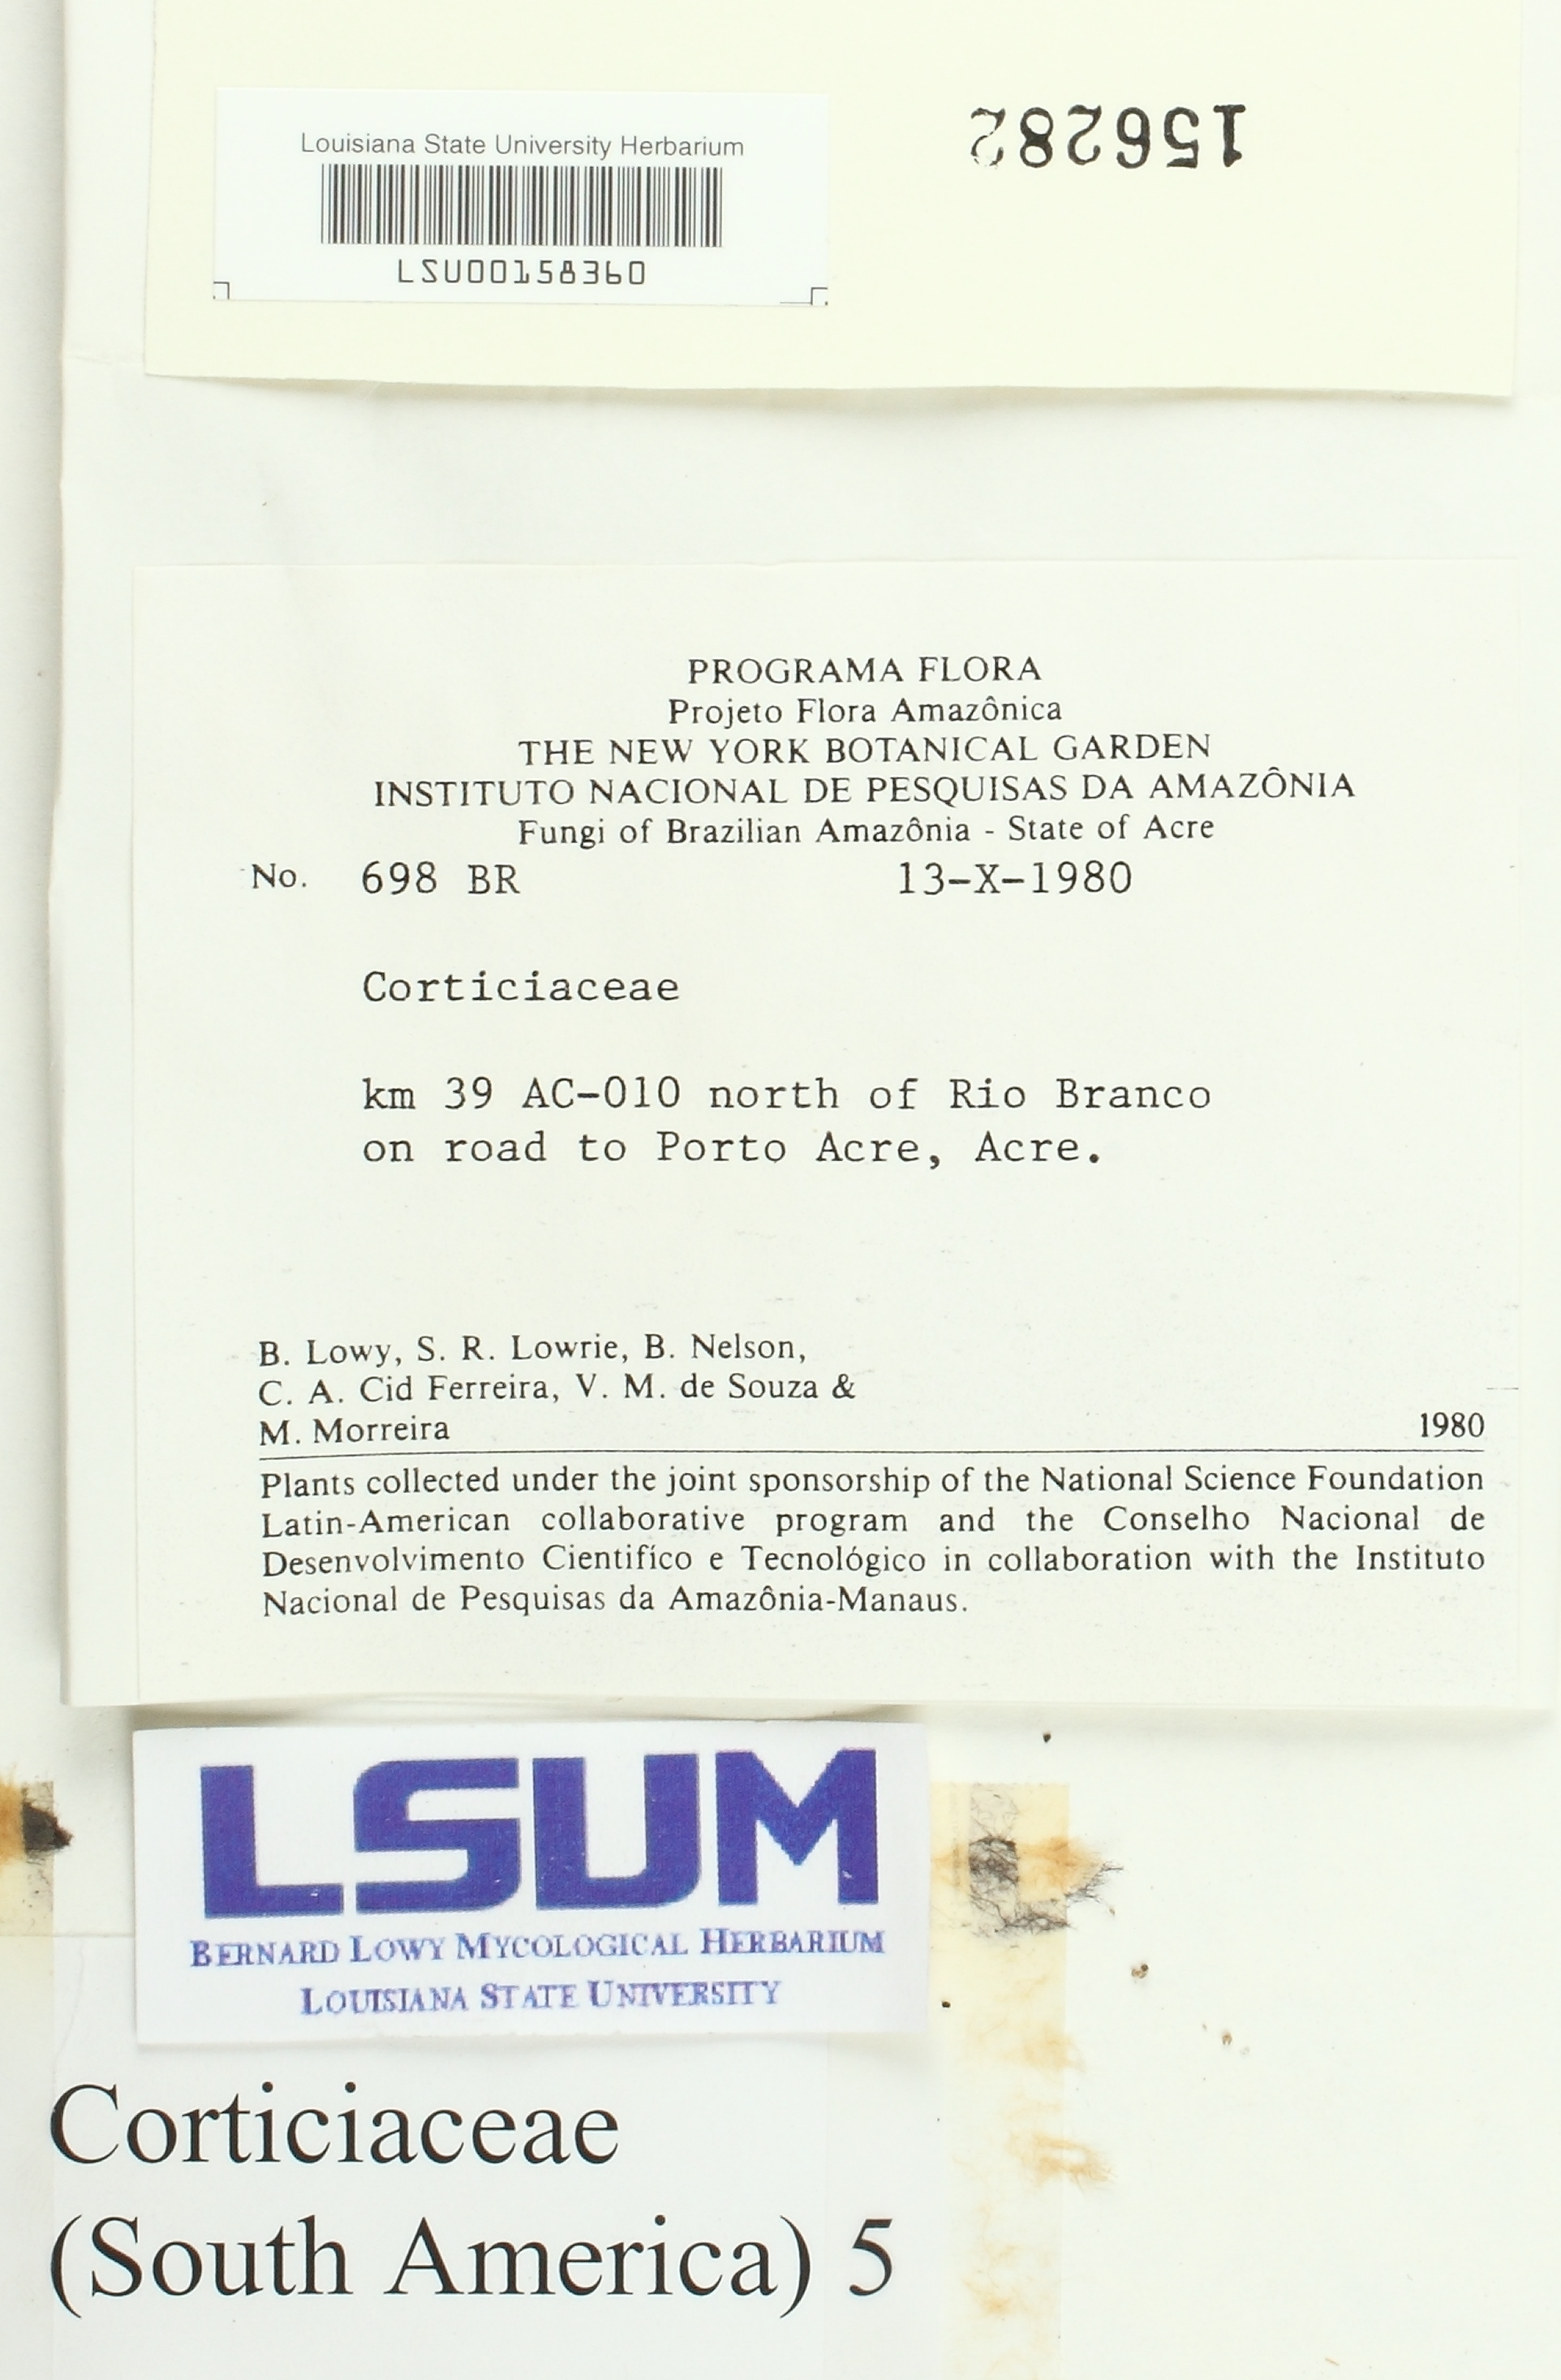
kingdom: Fungi
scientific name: Fungi
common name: Fungi
